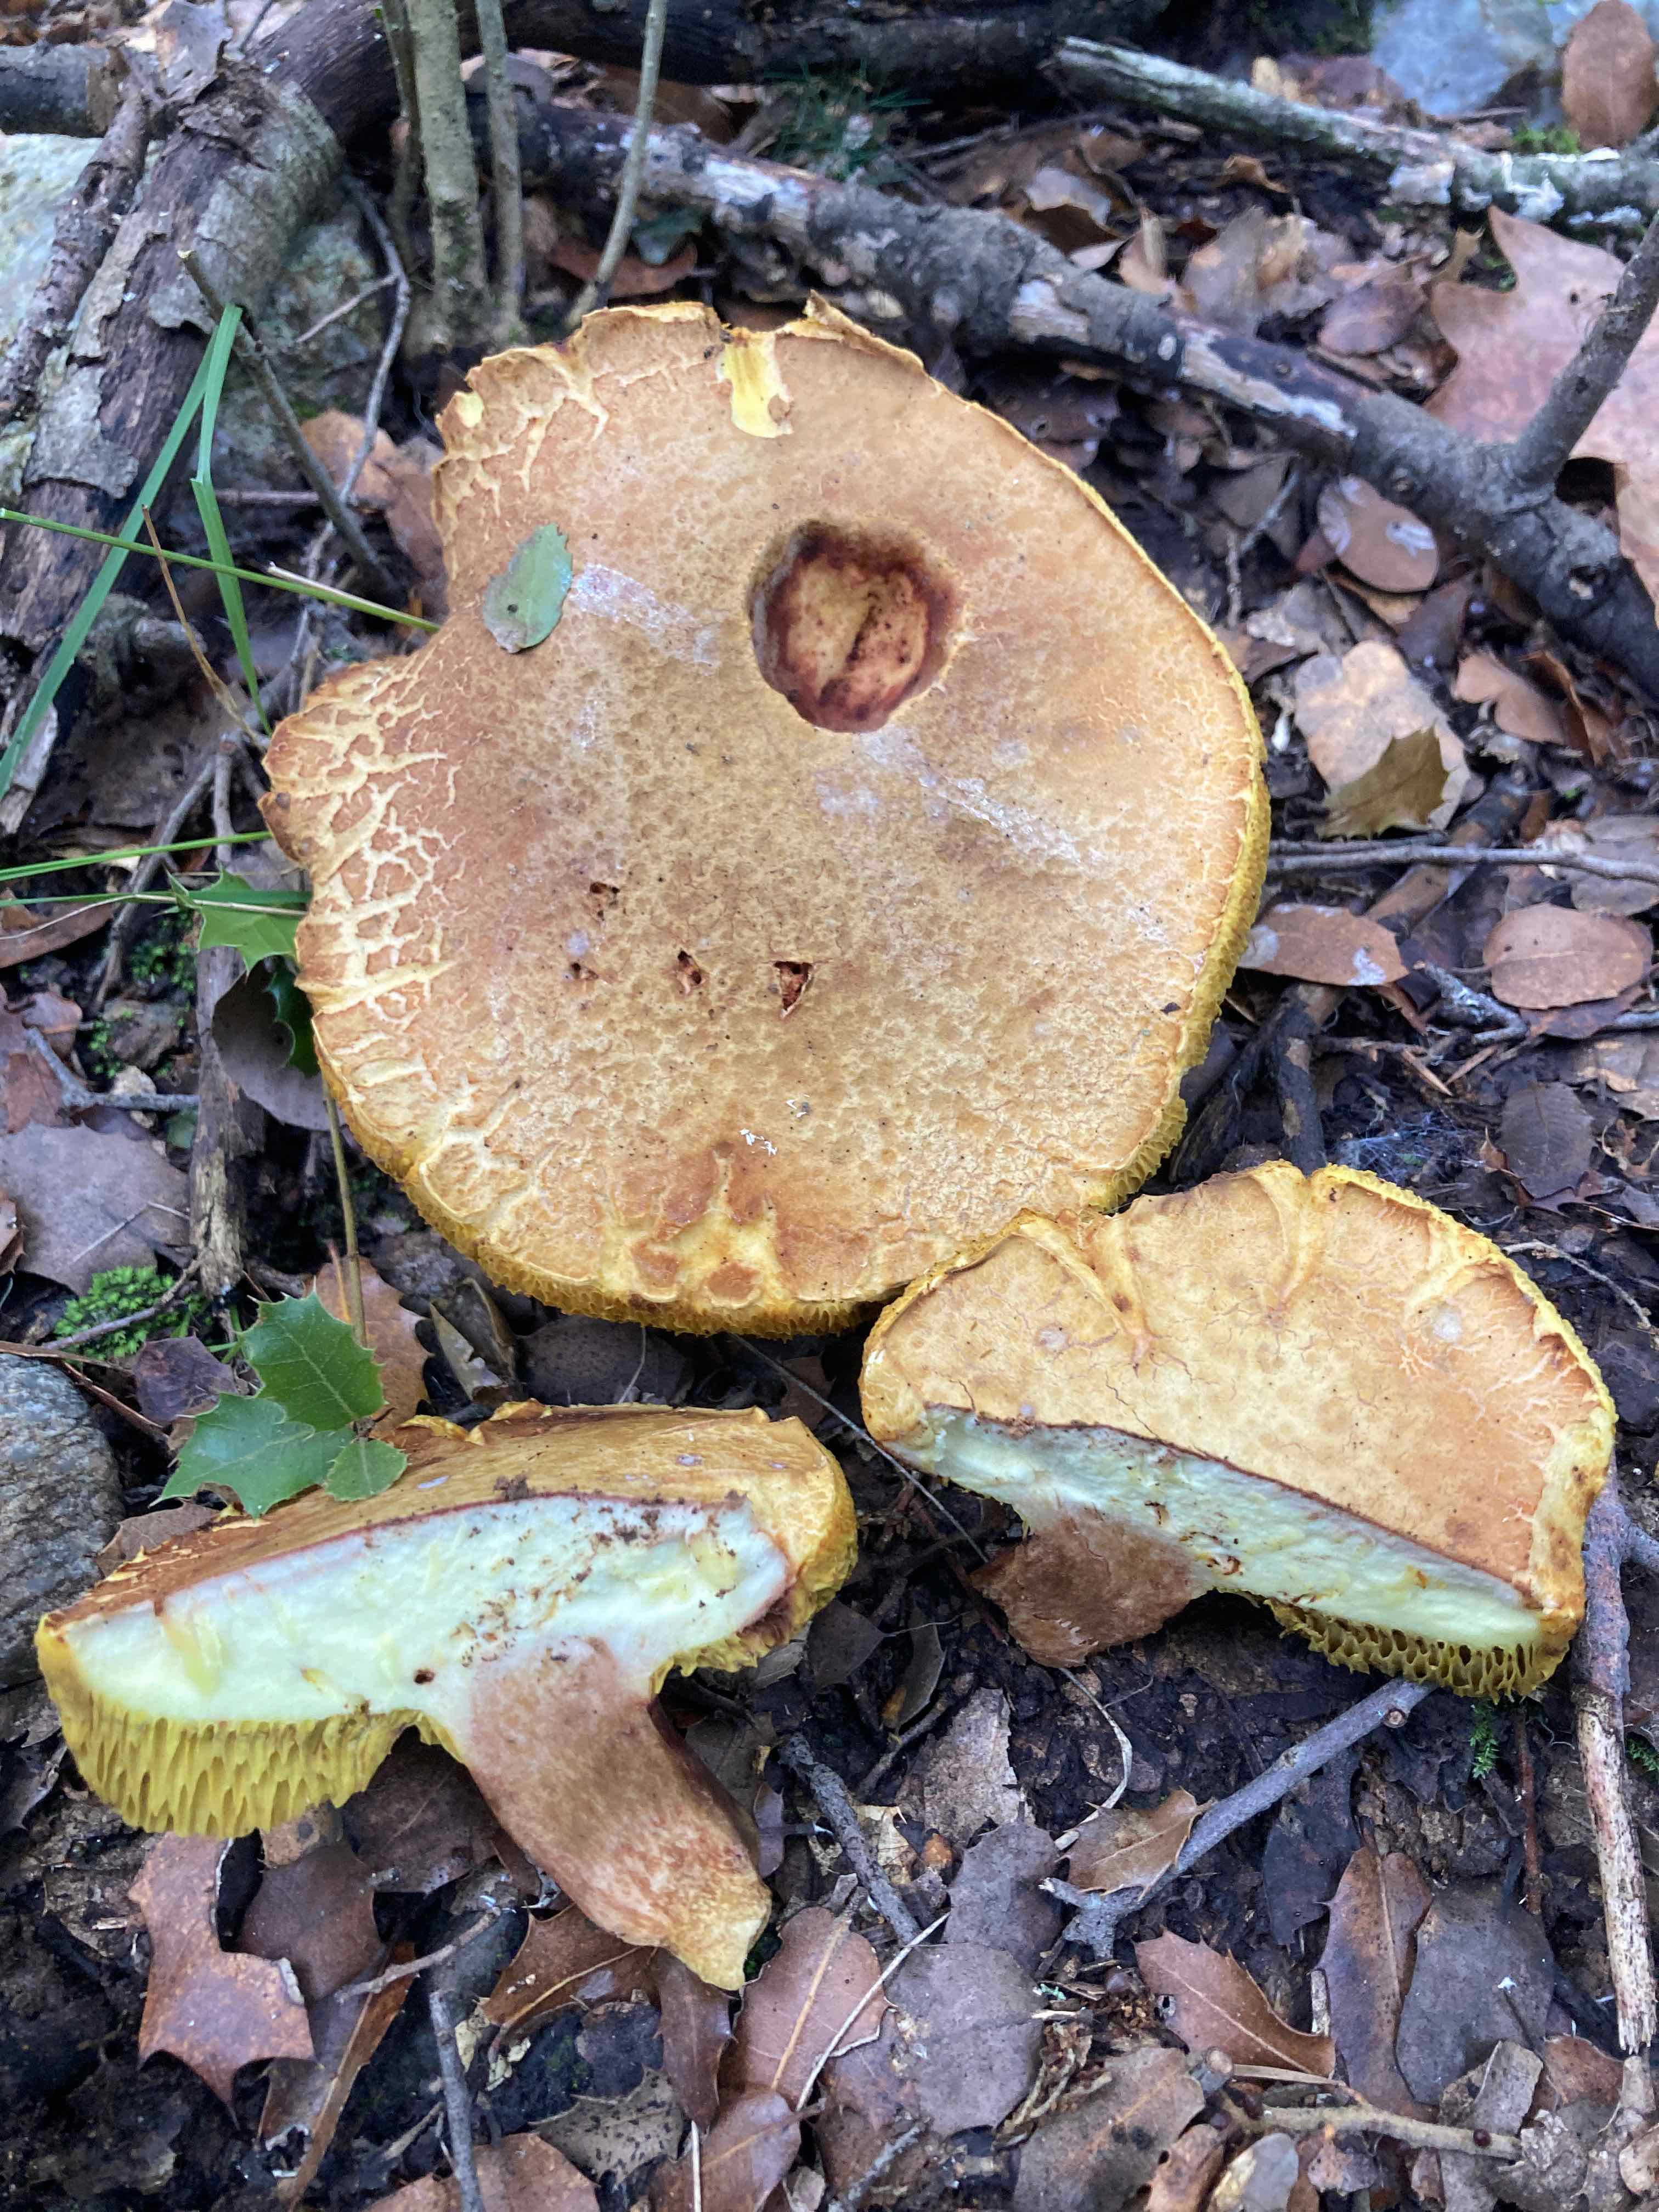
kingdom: Fungi
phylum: Basidiomycota
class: Agaricomycetes
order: Boletales
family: Boletaceae
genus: Xerocomus
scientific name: Xerocomus
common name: filtrørhat
